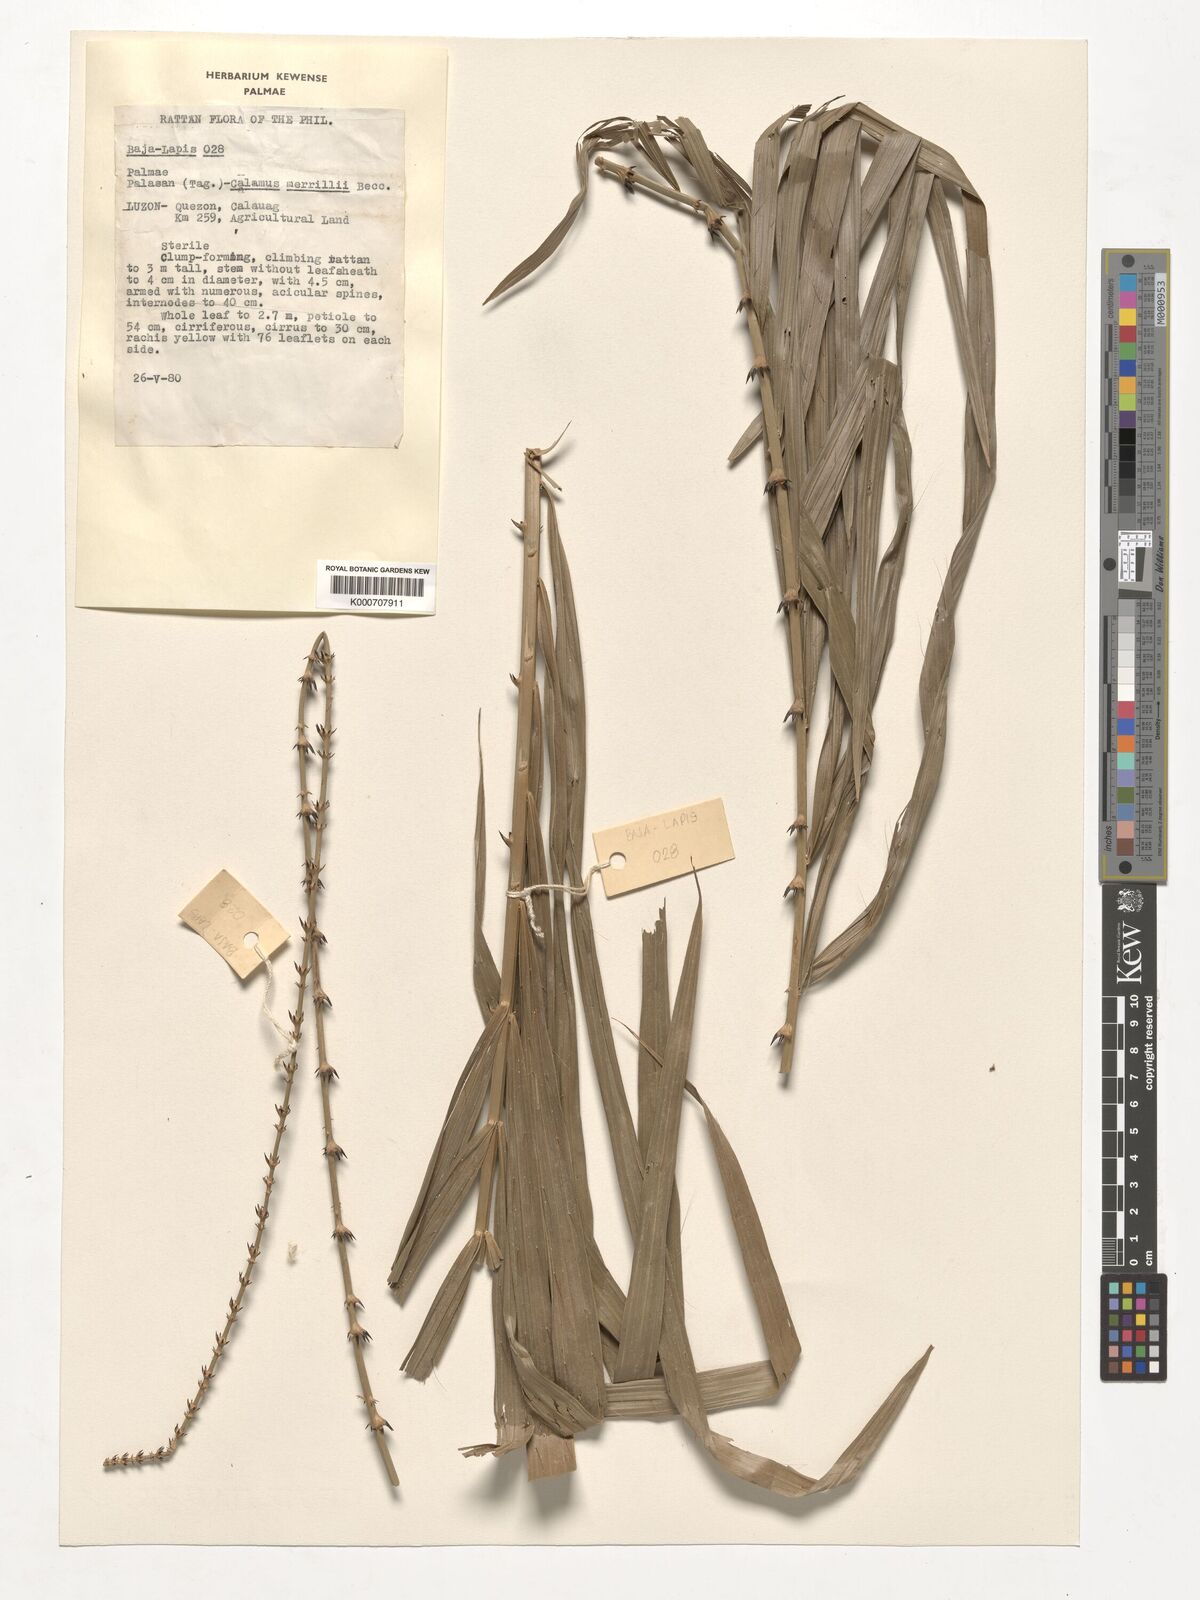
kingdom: Plantae
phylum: Tracheophyta
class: Liliopsida
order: Arecales
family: Arecaceae
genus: Calamus
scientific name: Calamus zollingeri
